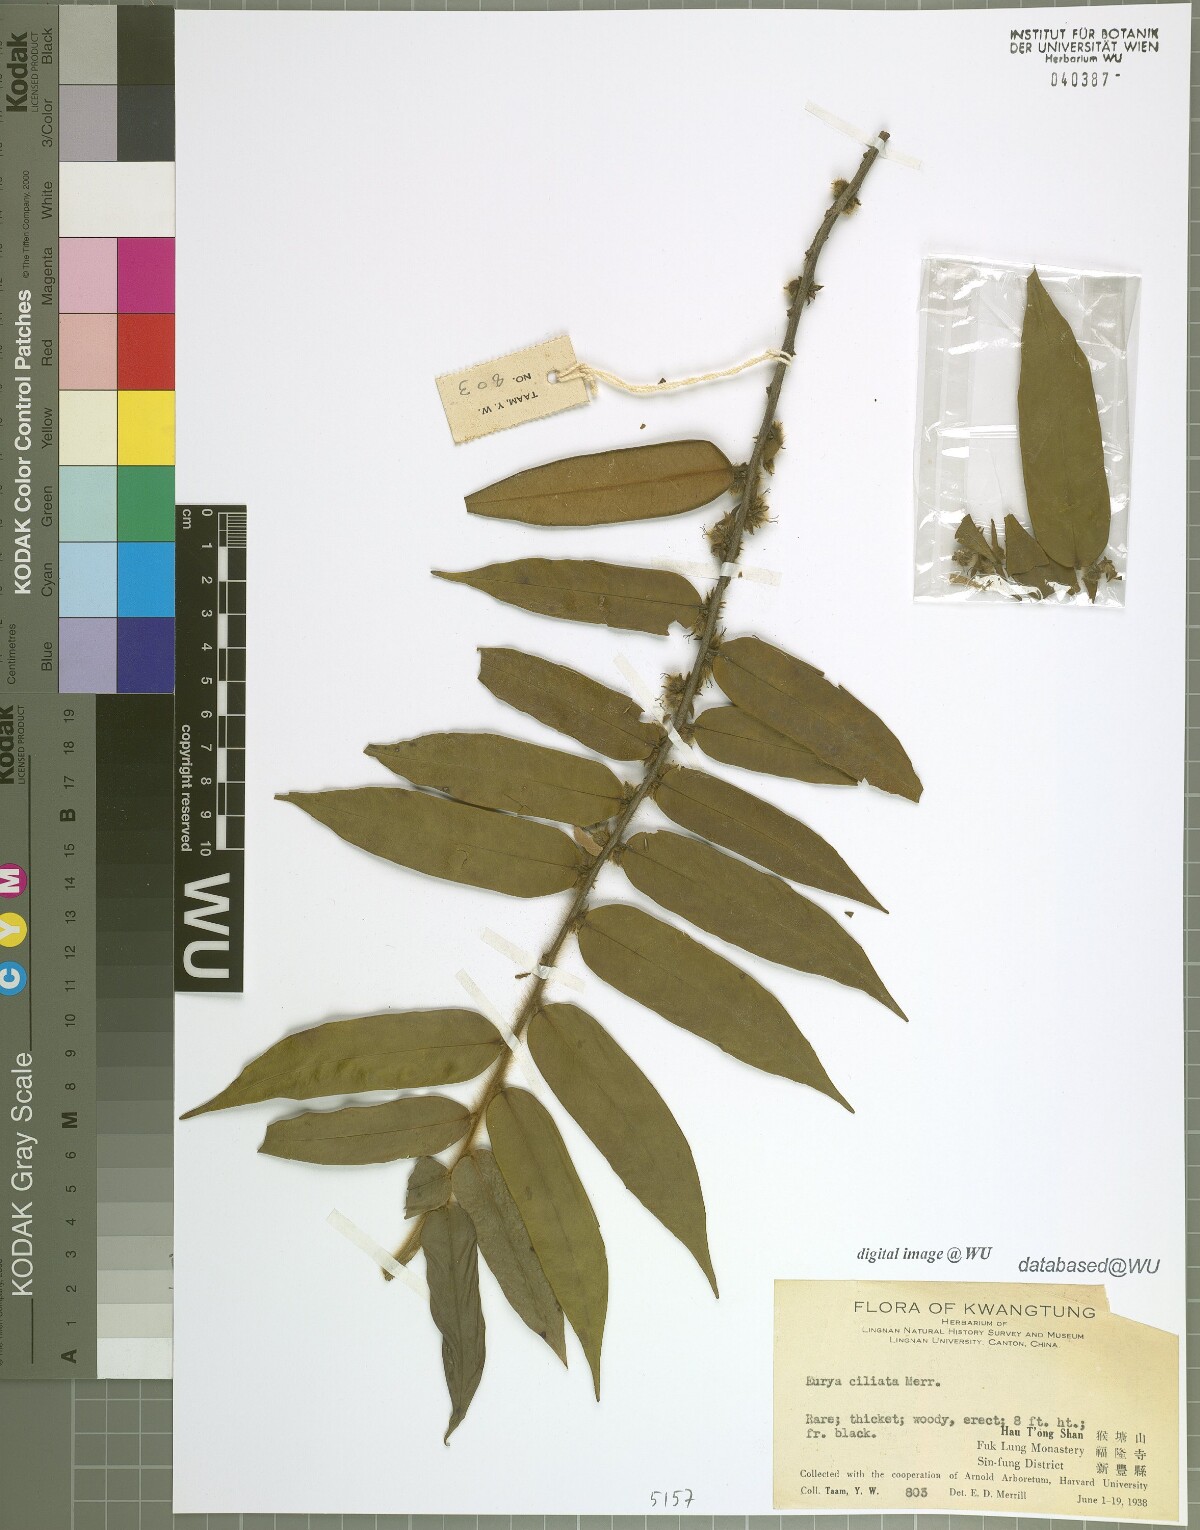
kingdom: Plantae
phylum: Tracheophyta
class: Magnoliopsida
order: Ericales
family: Pentaphylacaceae
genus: Eurya
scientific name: Eurya ciliata
